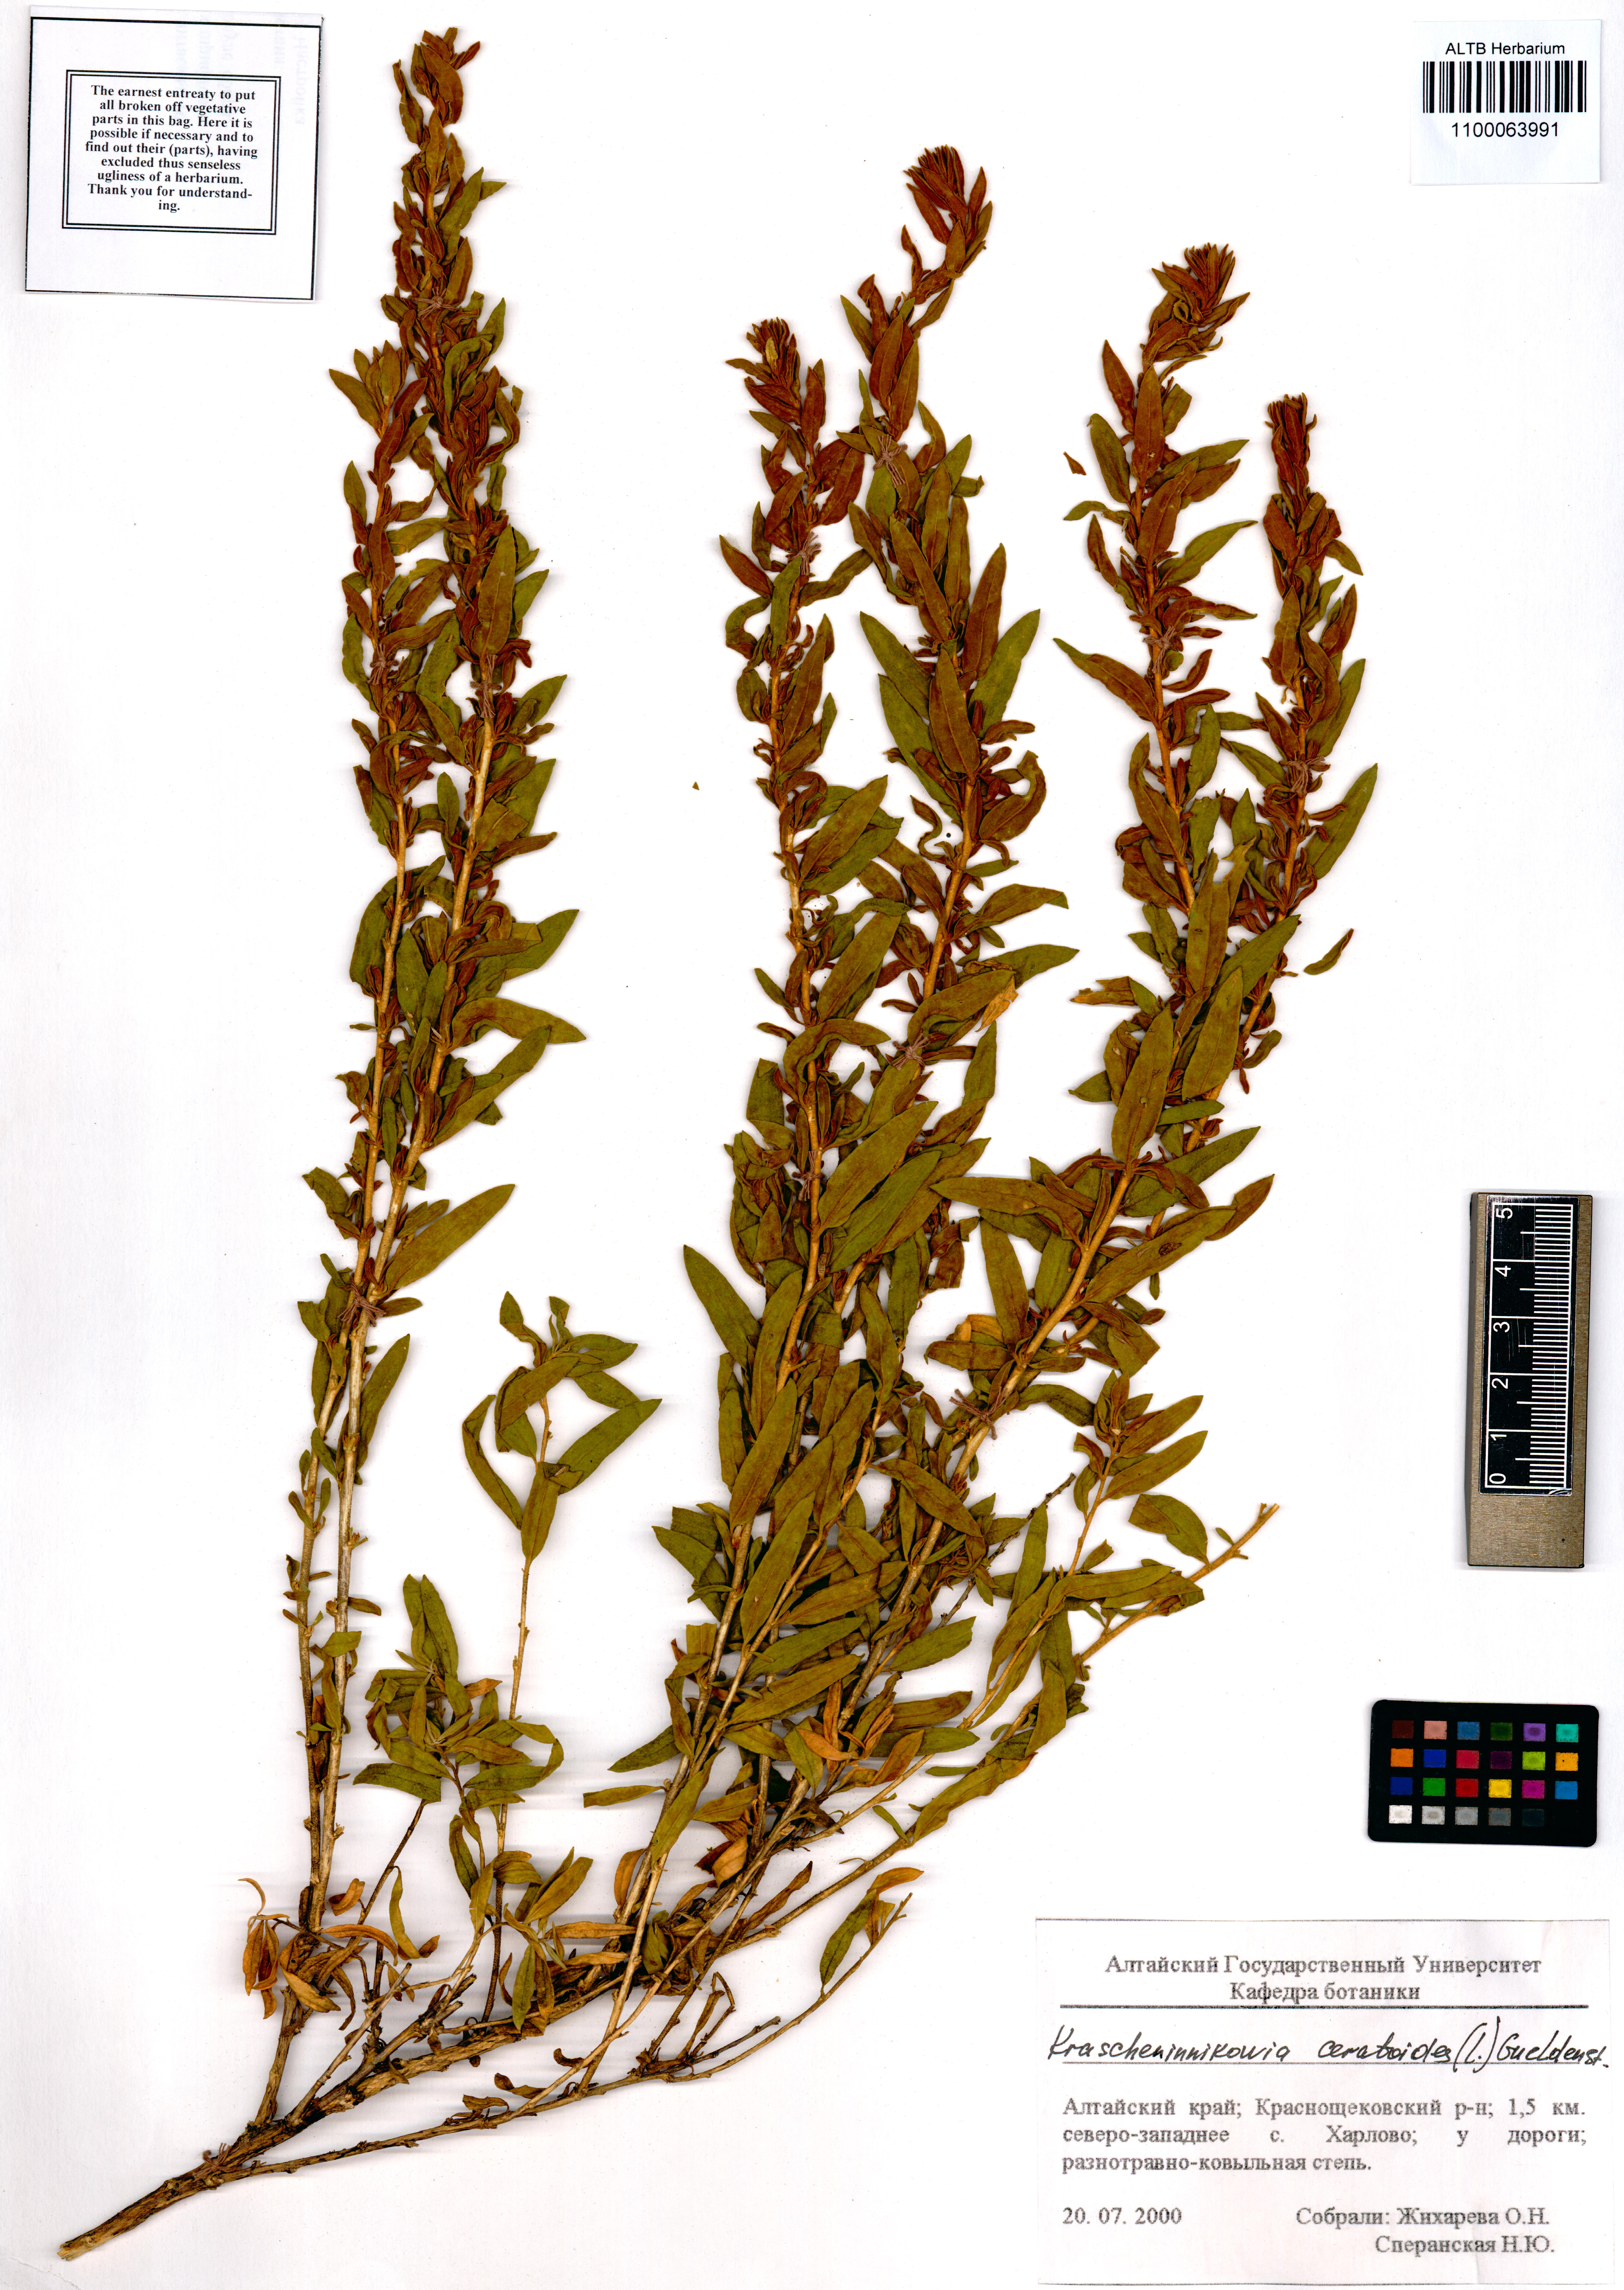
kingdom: Plantae
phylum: Tracheophyta
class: Magnoliopsida
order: Caryophyllales
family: Amaranthaceae
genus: Krascheninnikovia
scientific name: Krascheninnikovia ceratoides
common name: Pamirian winterfat
